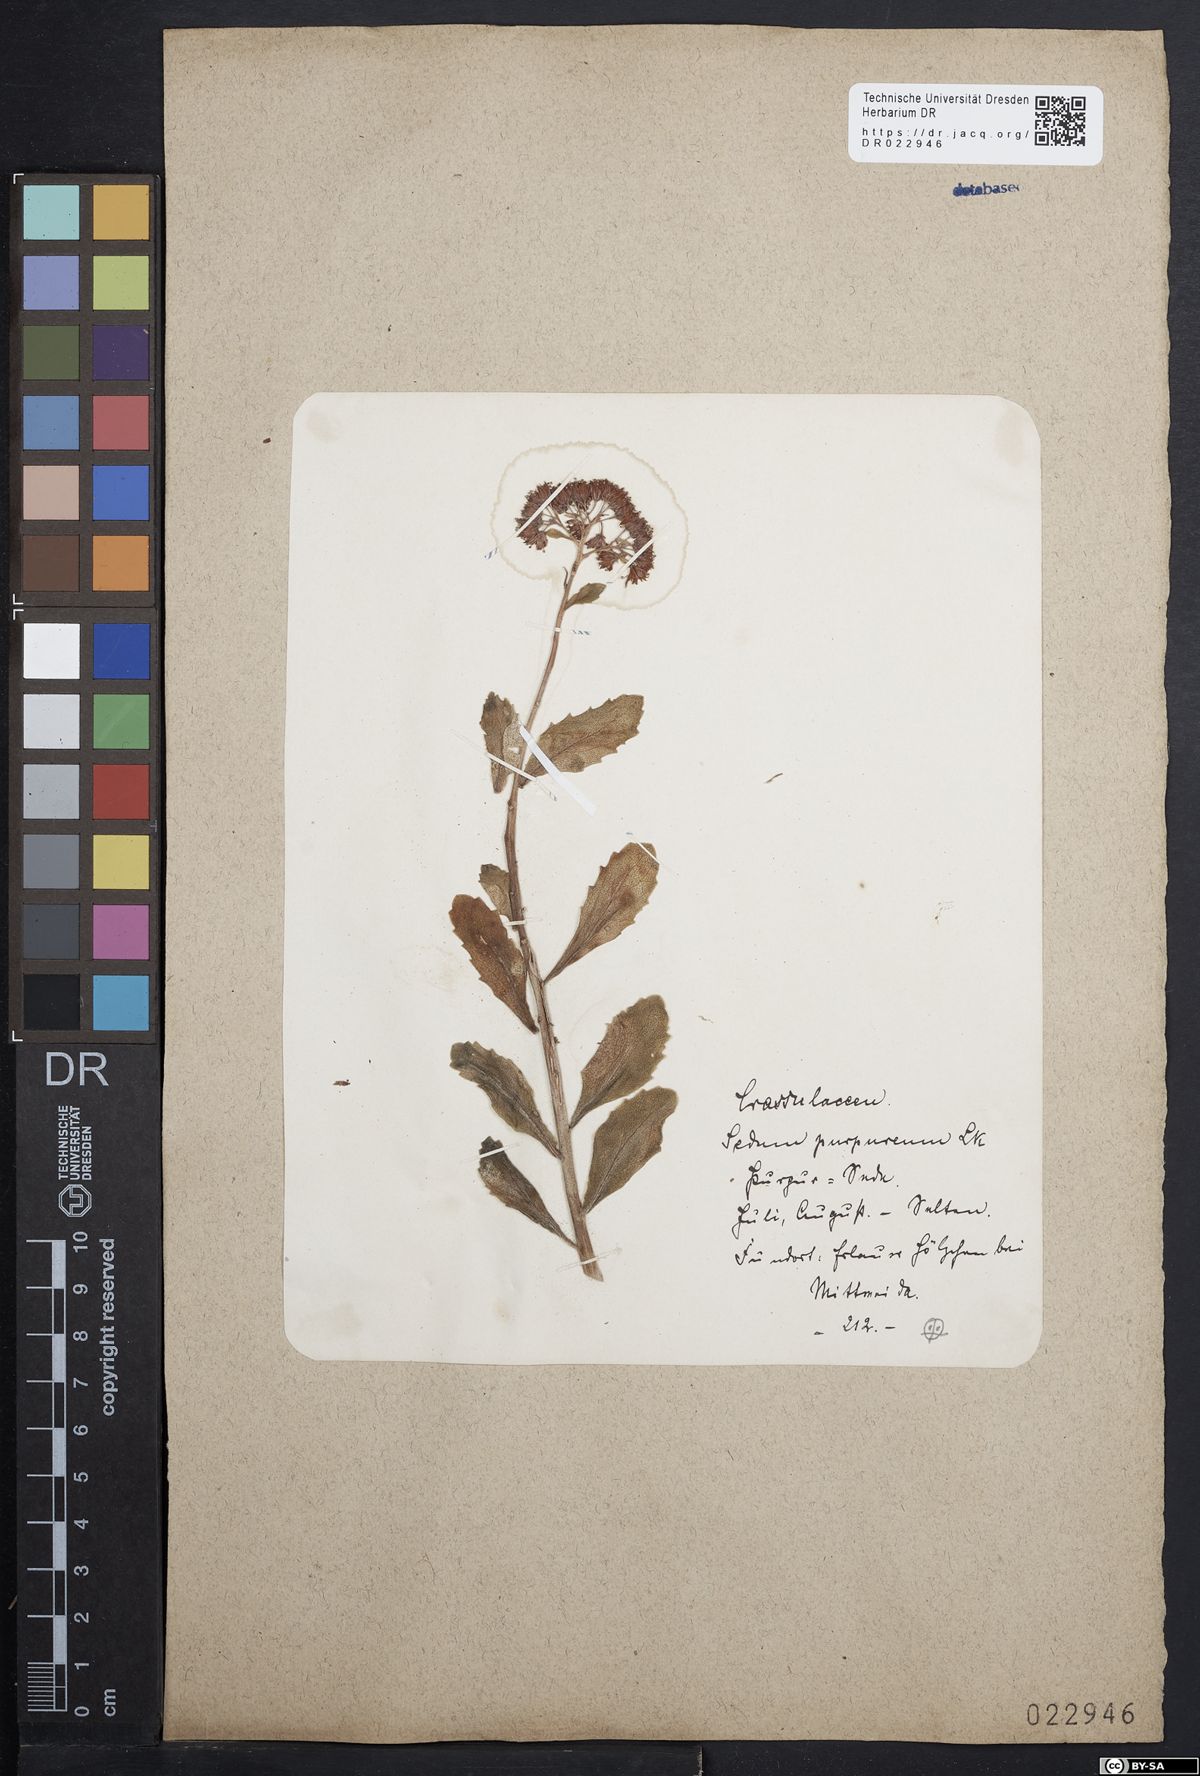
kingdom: Plantae
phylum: Tracheophyta
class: Magnoliopsida
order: Saxifragales
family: Crassulaceae
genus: Hylotelephium
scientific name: Hylotelephium telephium
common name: Live-forever
